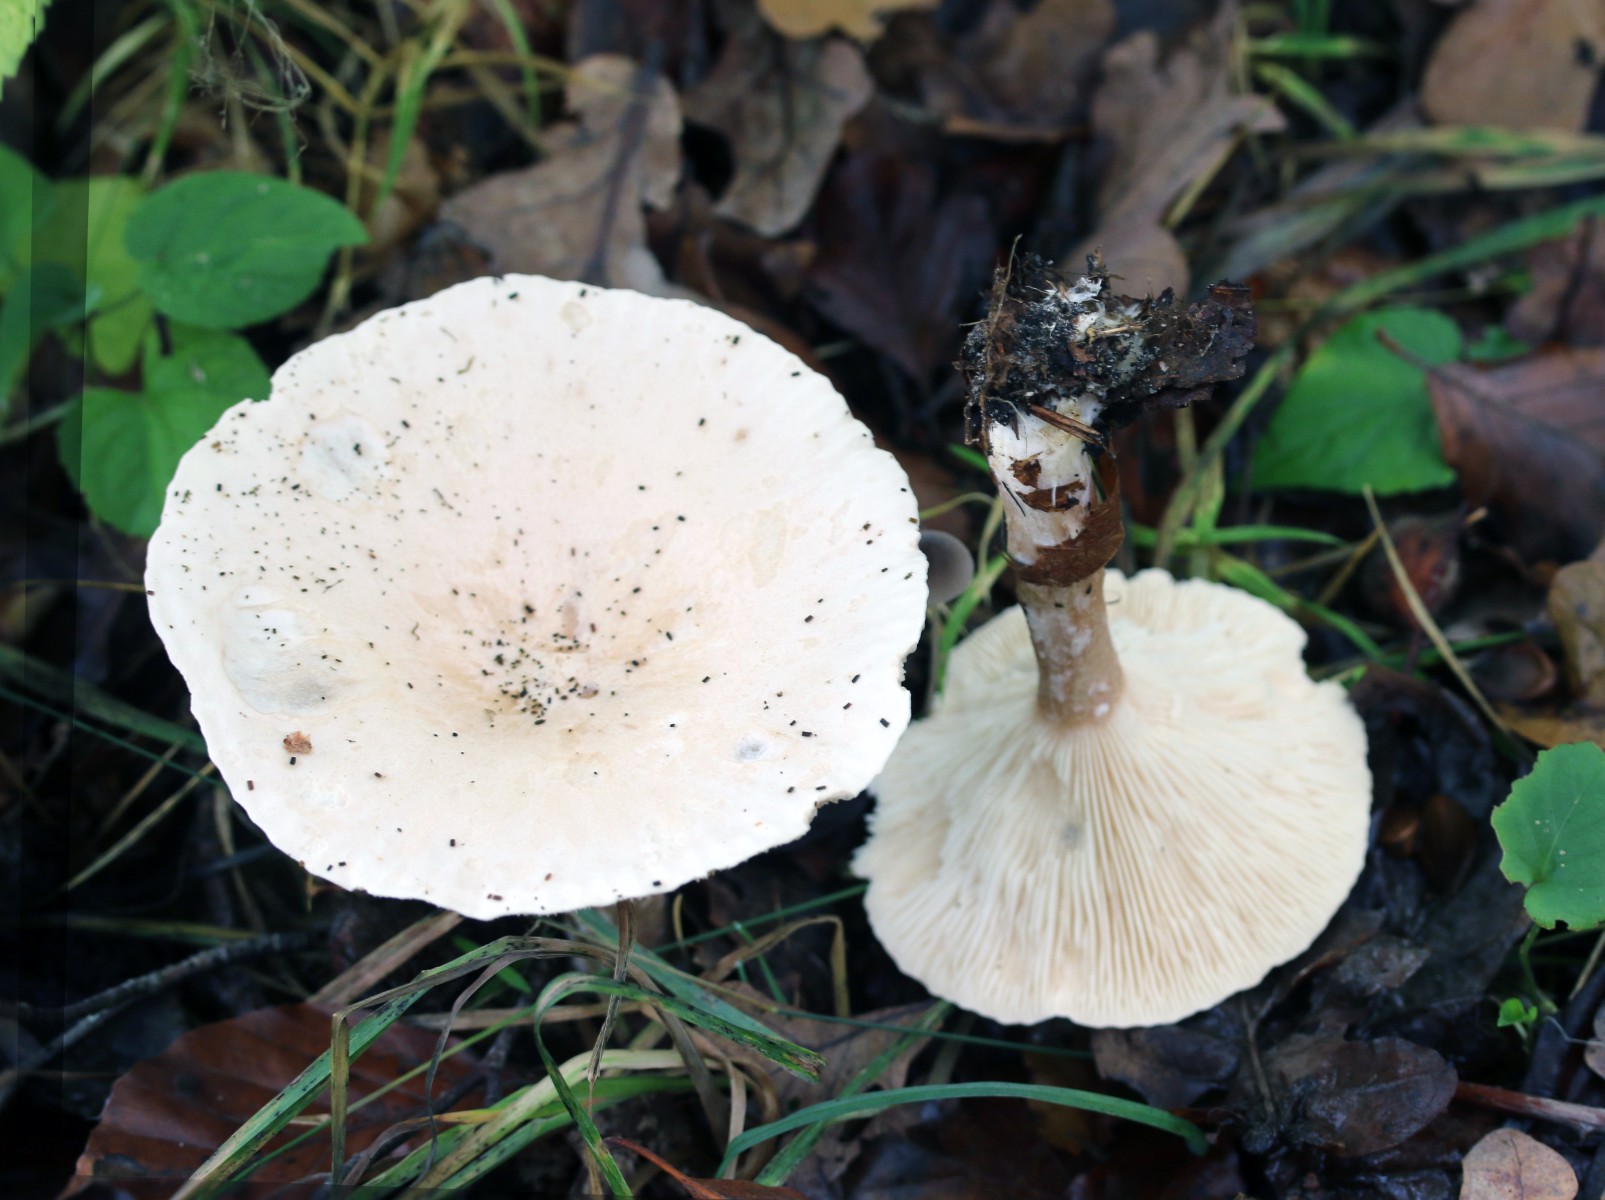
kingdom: Fungi
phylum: Basidiomycota
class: Agaricomycetes
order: Agaricales
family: Tricholomataceae
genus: Infundibulicybe
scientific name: Infundibulicybe geotropa
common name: stor tragthat
